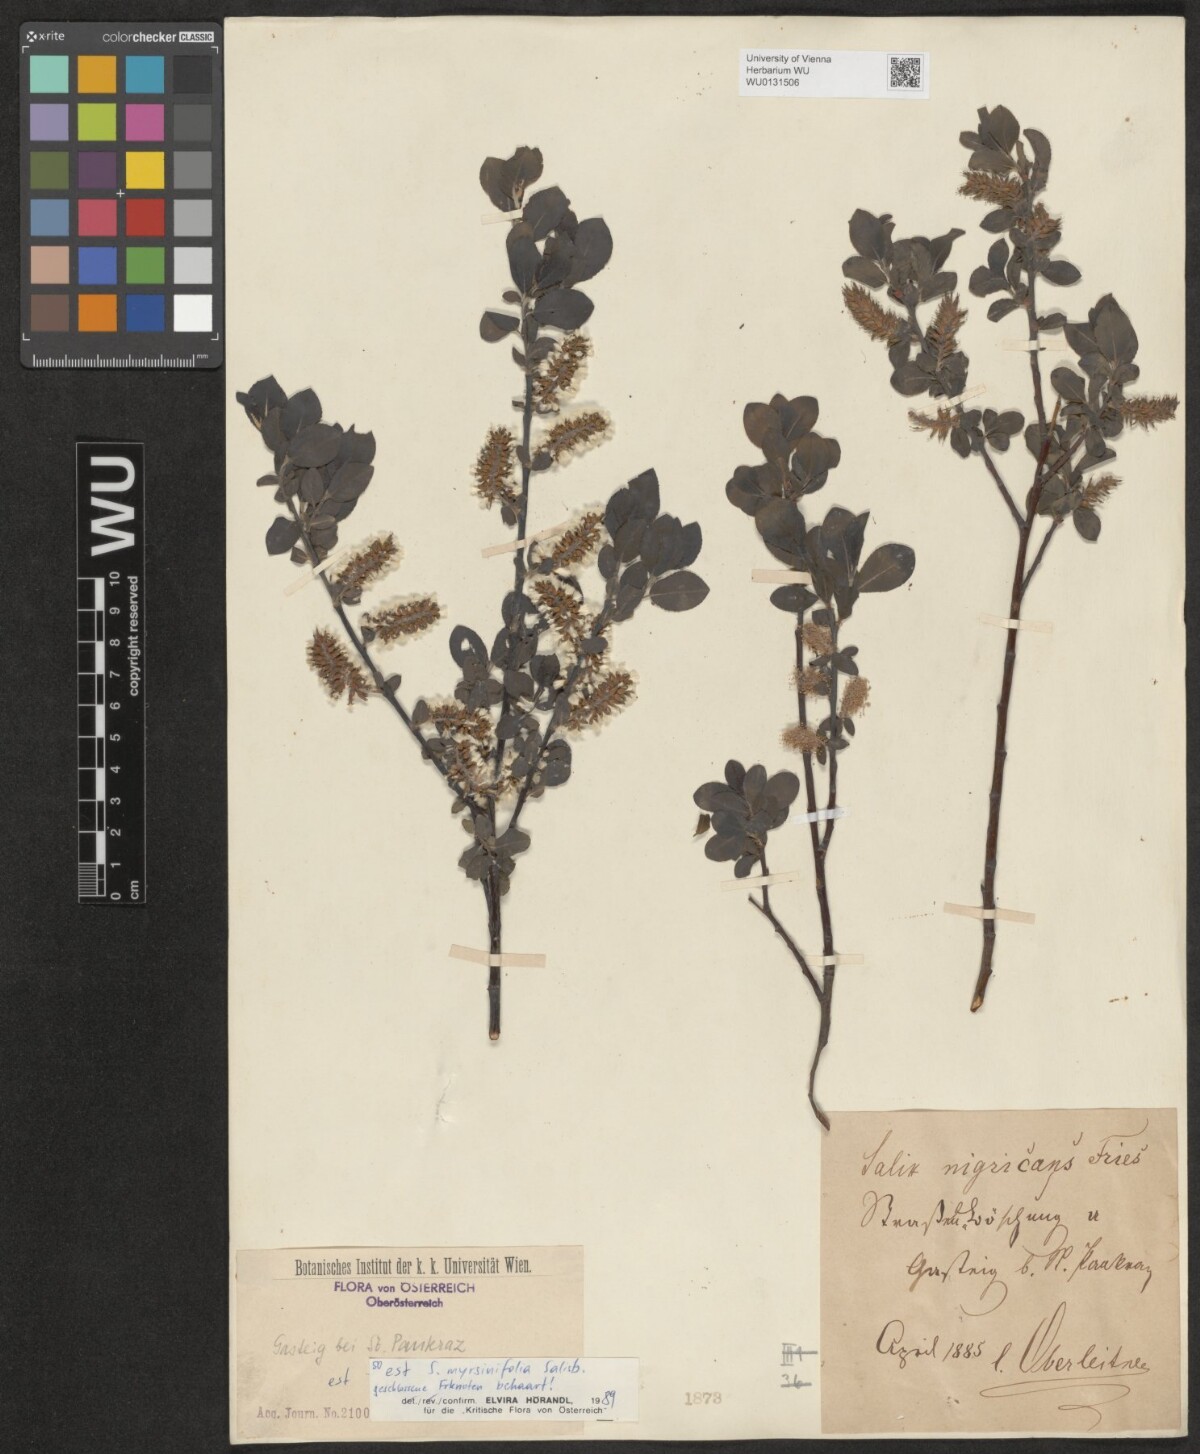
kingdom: Plantae
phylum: Tracheophyta
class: Magnoliopsida
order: Malpighiales
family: Salicaceae
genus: Salix
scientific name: Salix myrsinifolia
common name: Dark-leaved willow
